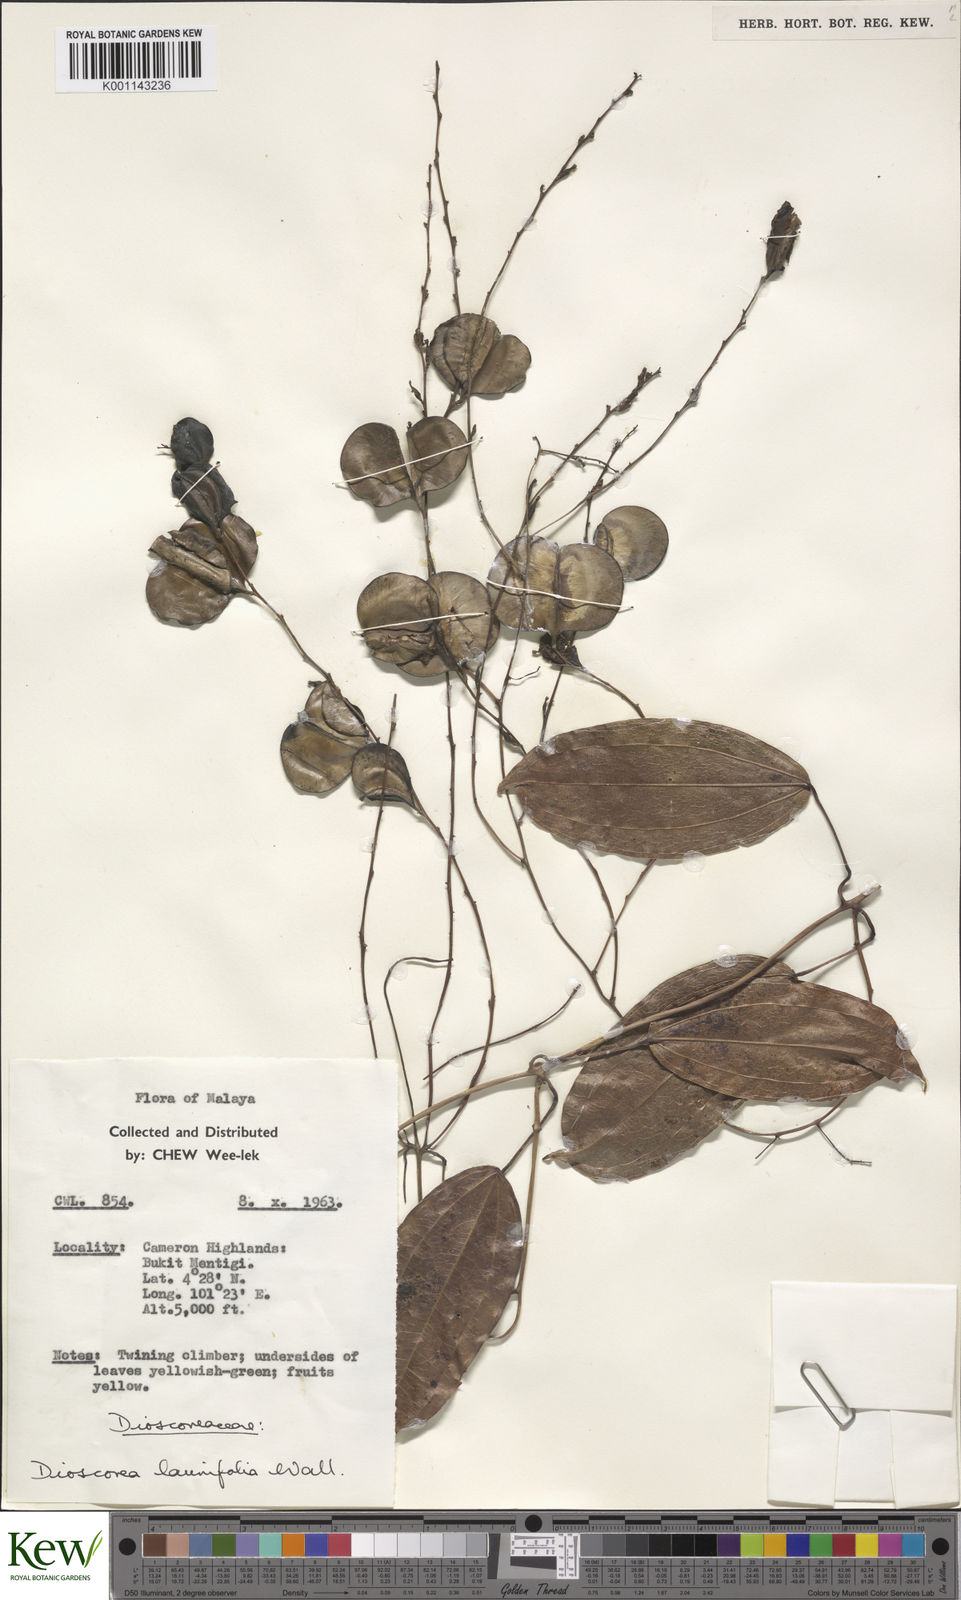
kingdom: Plantae
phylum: Tracheophyta
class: Liliopsida
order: Dioscoreales
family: Dioscoreaceae
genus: Dioscorea
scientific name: Dioscorea laurifolia
